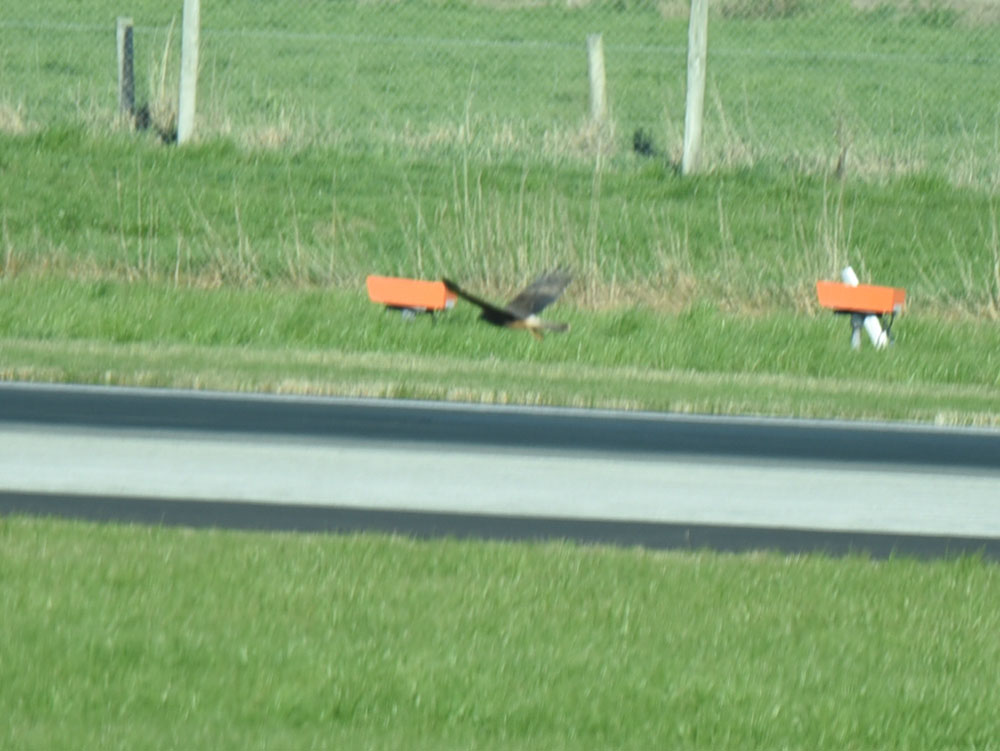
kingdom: Animalia
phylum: Chordata
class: Aves
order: Accipitriformes
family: Accipitridae
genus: Circus
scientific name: Circus approximans
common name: Swamp harrier
